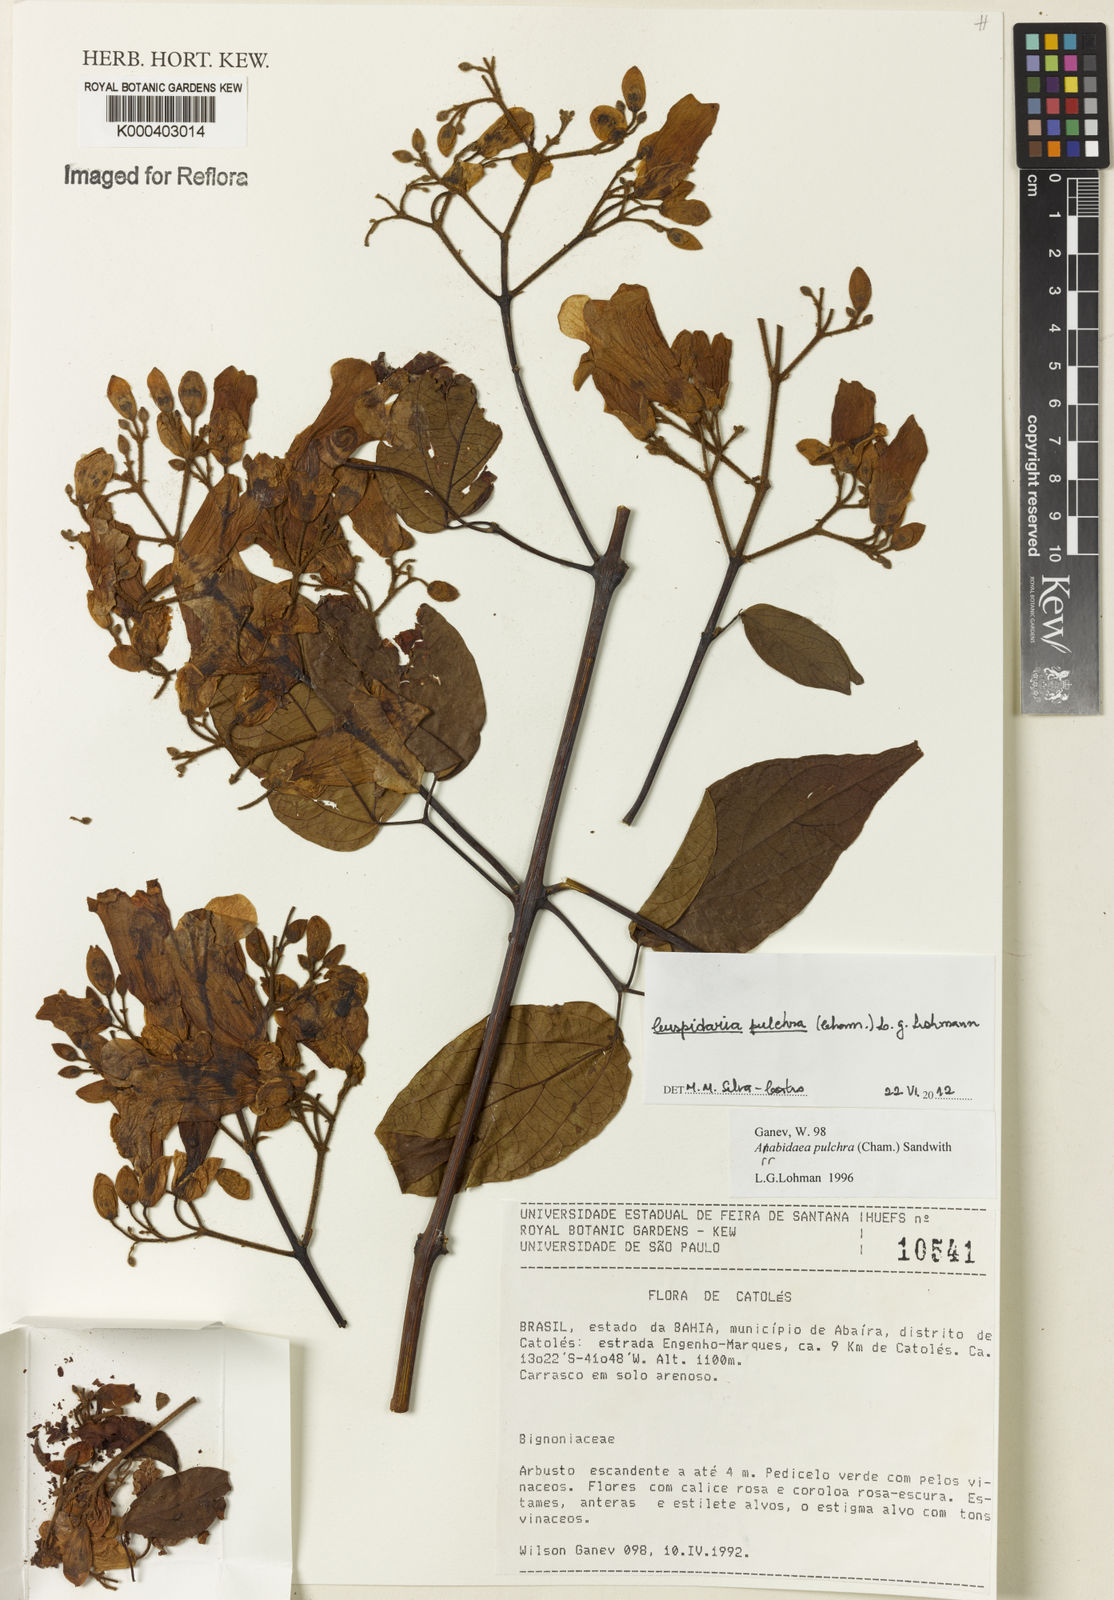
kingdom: Plantae
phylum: Tracheophyta
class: Magnoliopsida
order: Lamiales
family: Bignoniaceae
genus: Cuspidaria
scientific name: Cuspidaria sceptrum
